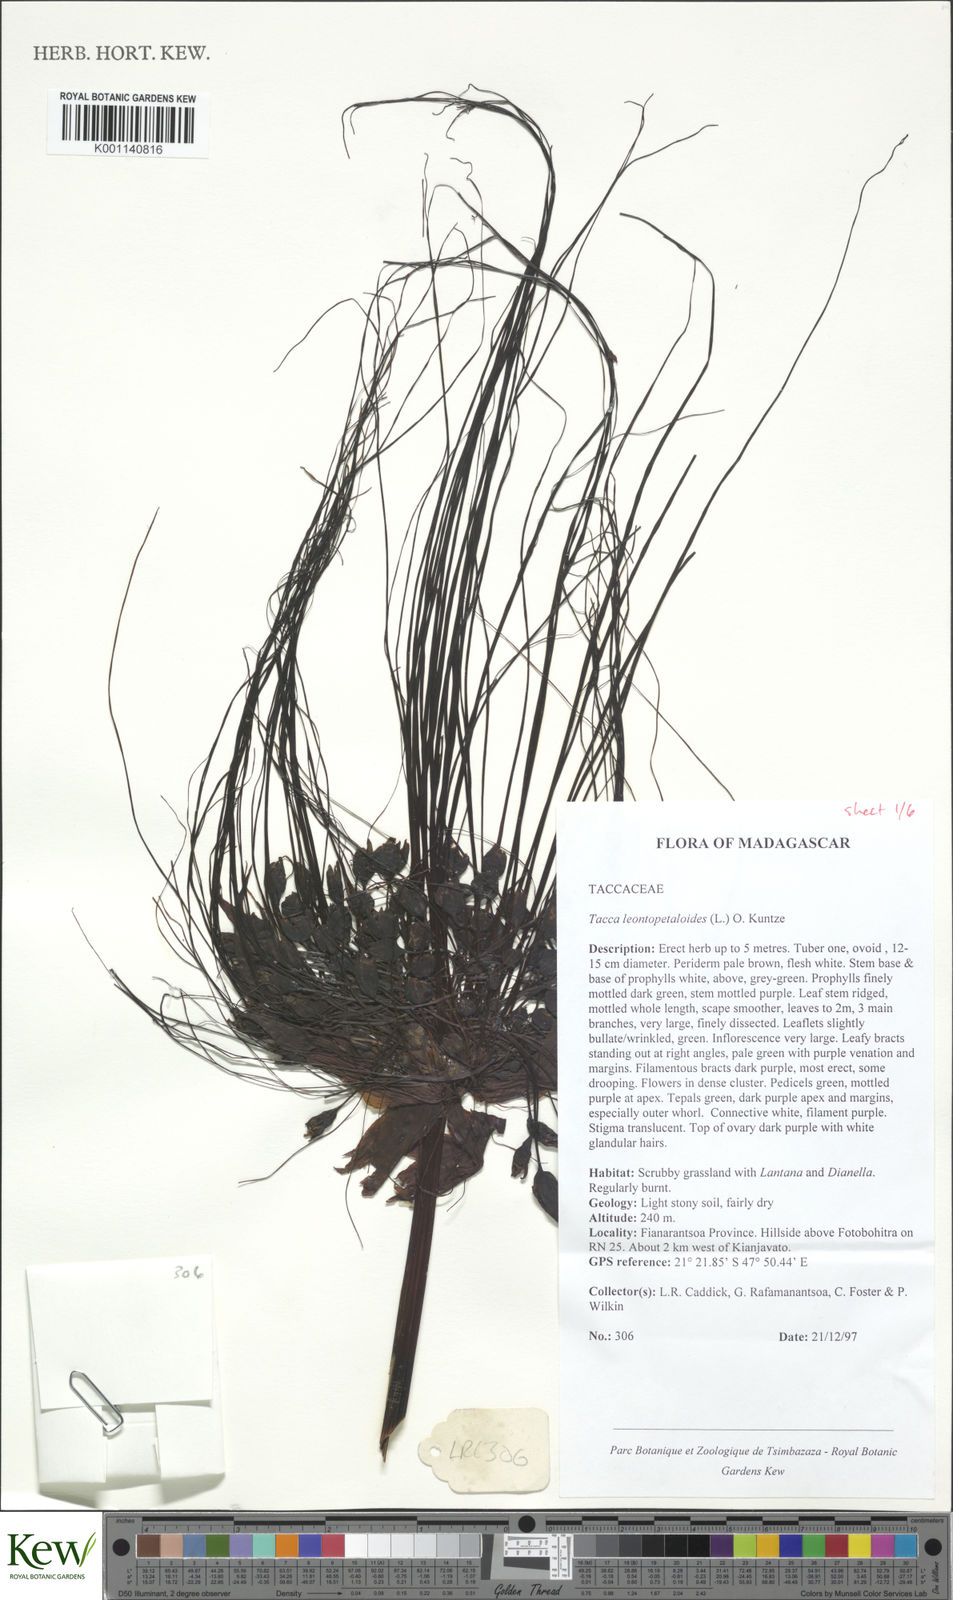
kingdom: Plantae
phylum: Tracheophyta
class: Liliopsida
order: Dioscoreales
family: Dioscoreaceae
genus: Tacca
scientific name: Tacca leontopetaloides
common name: Arrowroot
